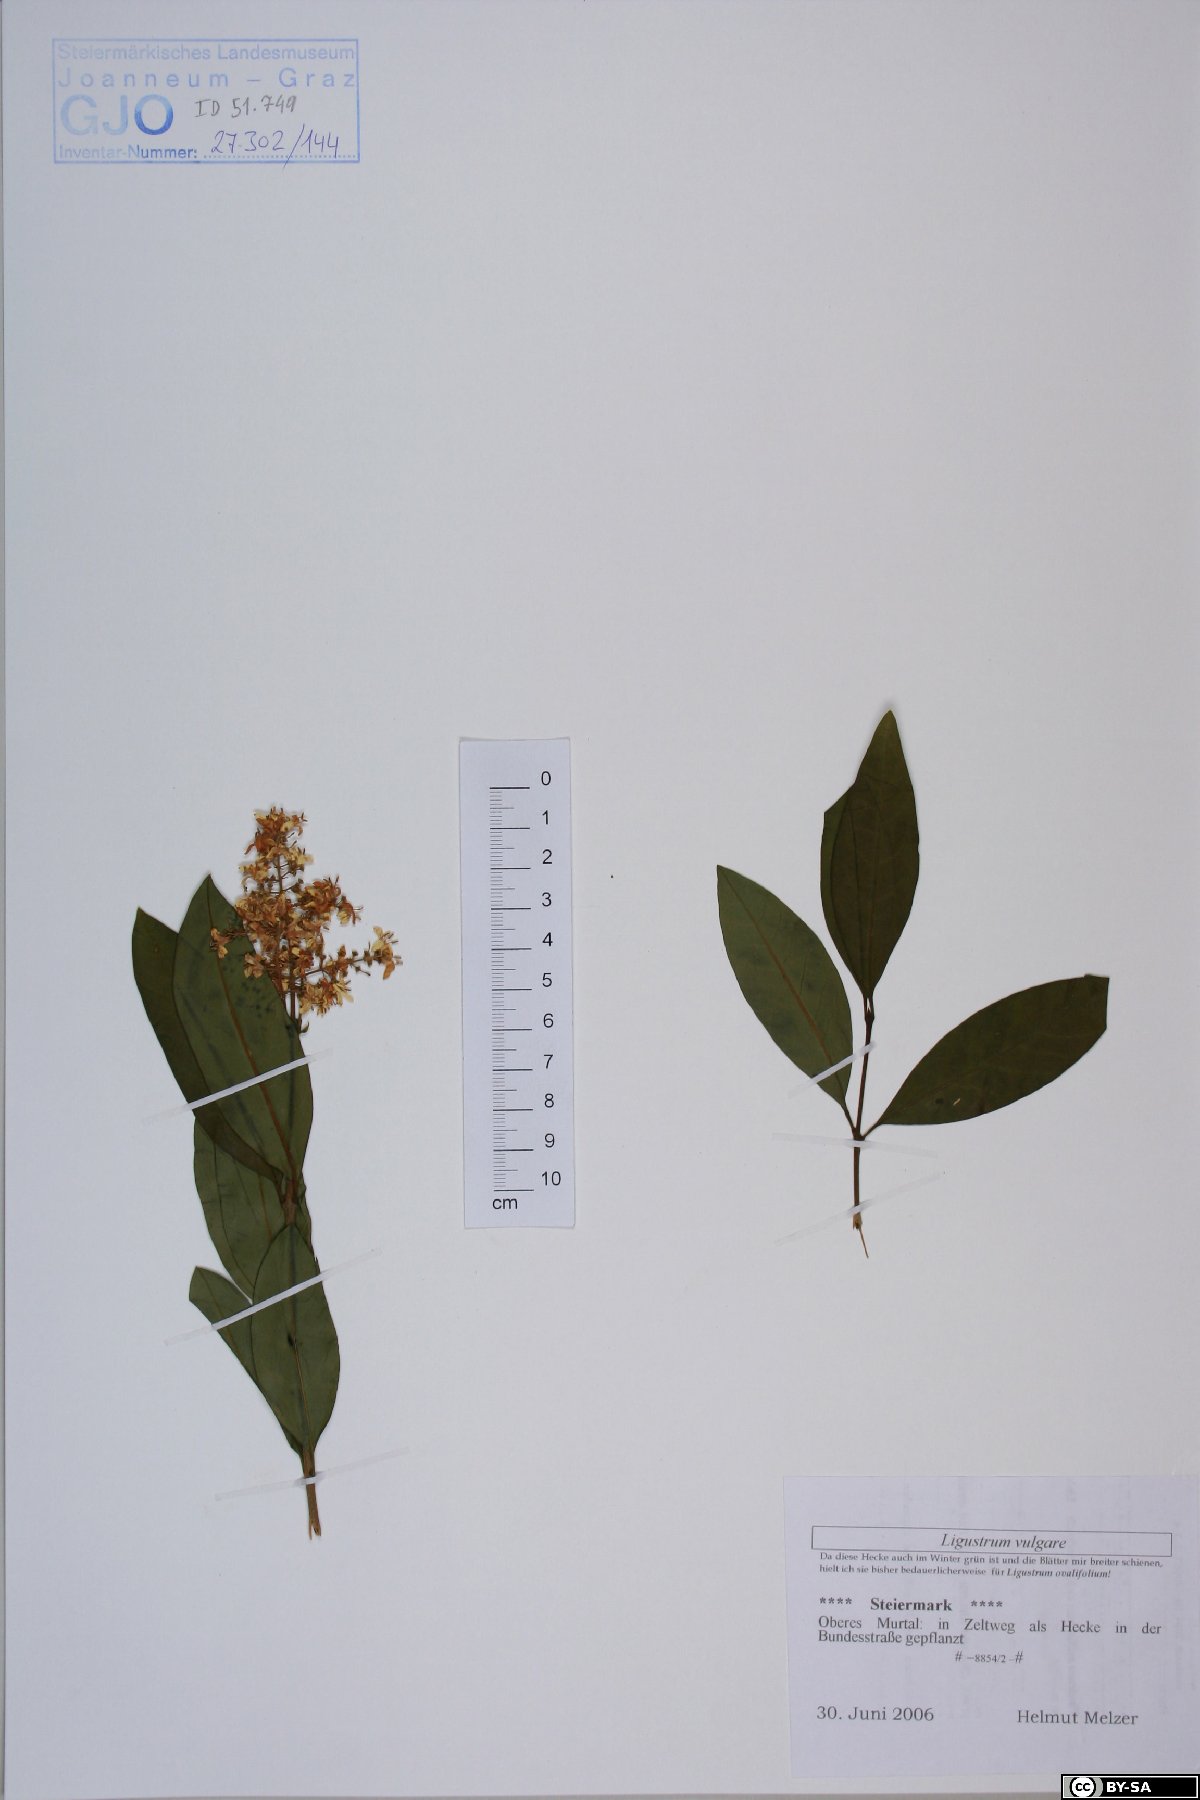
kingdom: Plantae
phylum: Tracheophyta
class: Magnoliopsida
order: Lamiales
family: Oleaceae
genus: Ligustrum
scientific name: Ligustrum vulgare
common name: Wild privet
